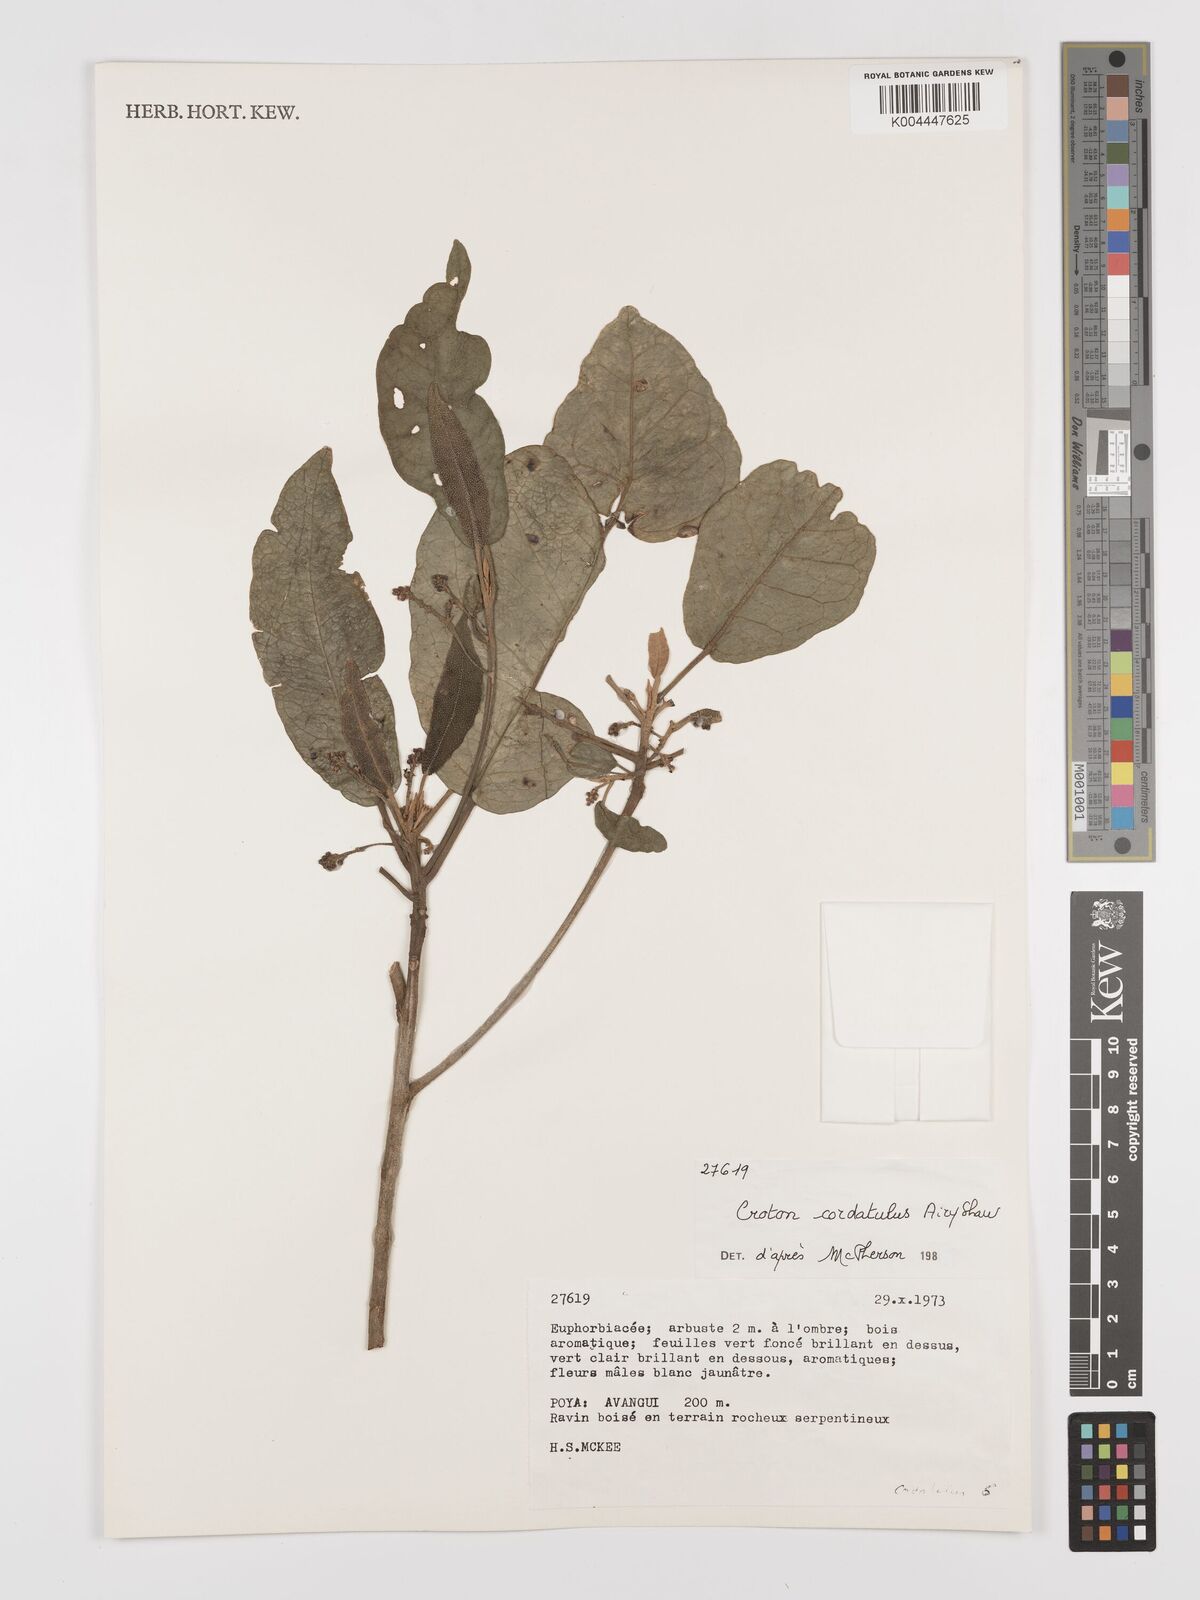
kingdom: Plantae
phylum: Tracheophyta
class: Magnoliopsida
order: Malpighiales
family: Euphorbiaceae
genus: Croton
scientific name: Croton cordatulus
